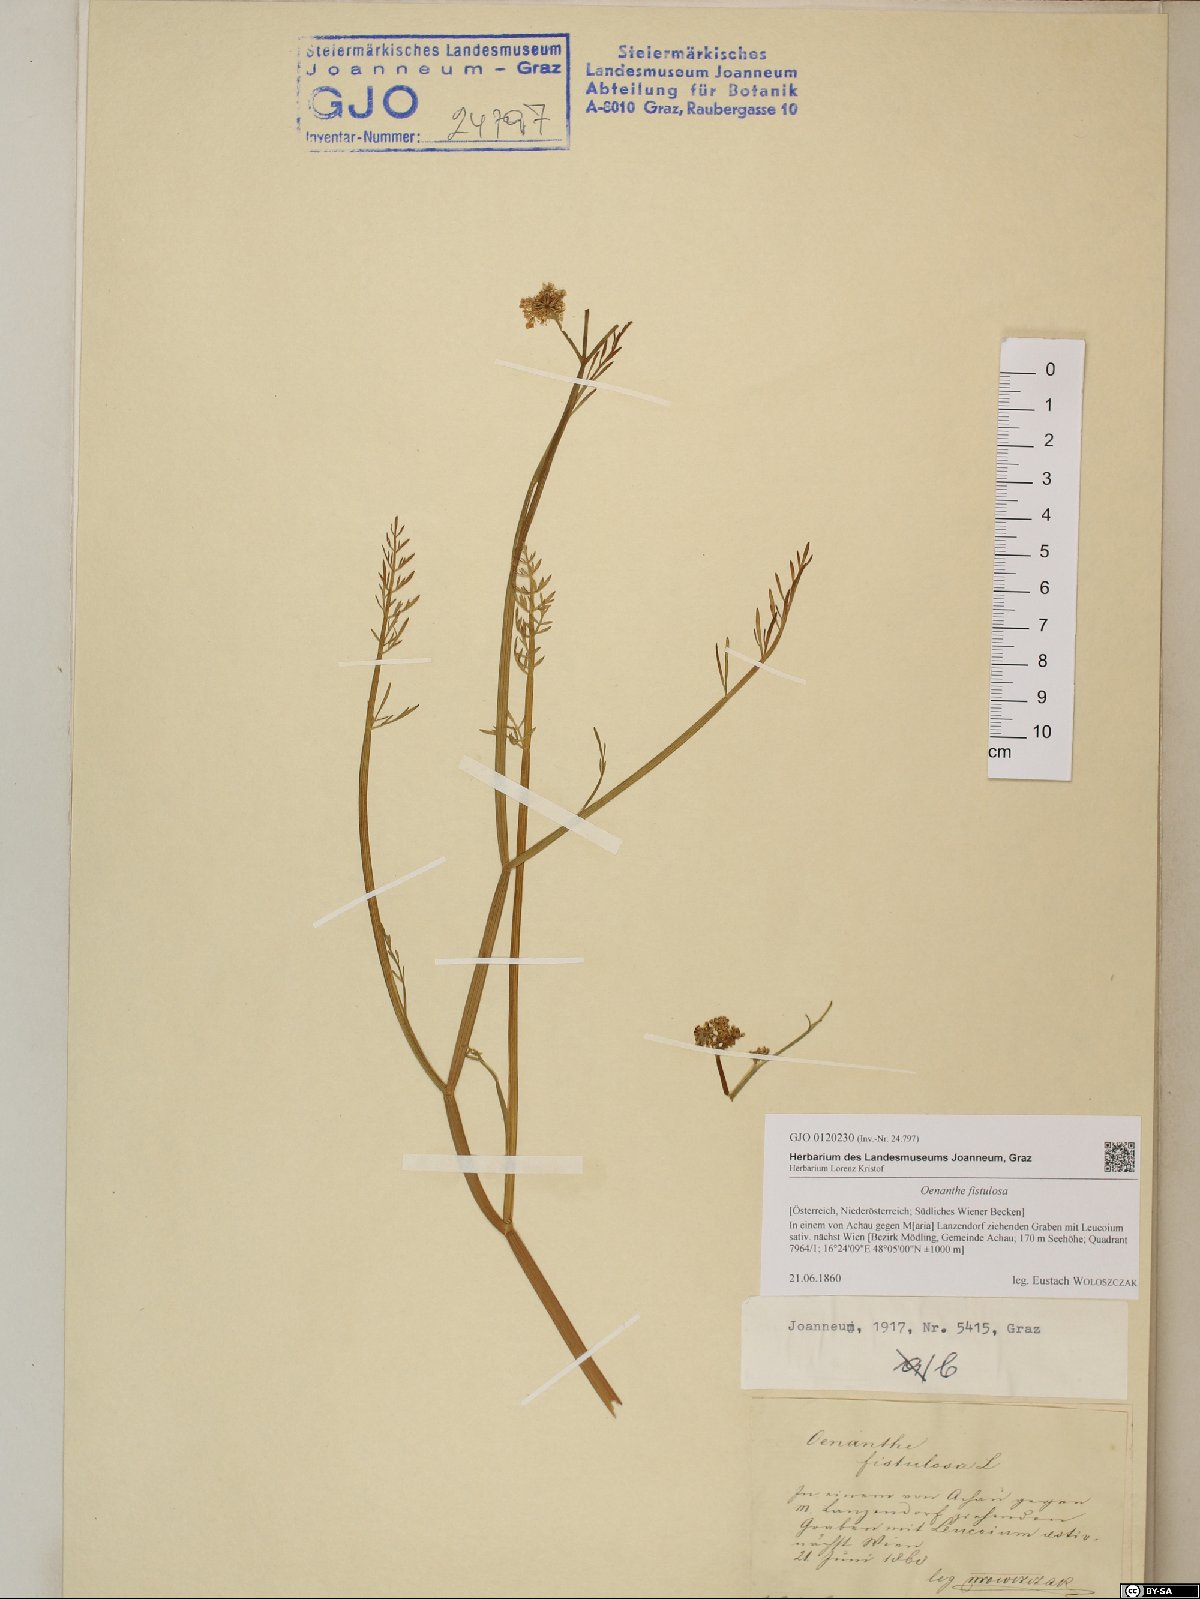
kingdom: Plantae
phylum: Tracheophyta
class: Magnoliopsida
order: Apiales
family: Apiaceae
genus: Oenanthe
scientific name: Oenanthe fistulosa
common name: Tubular water-dropwort
